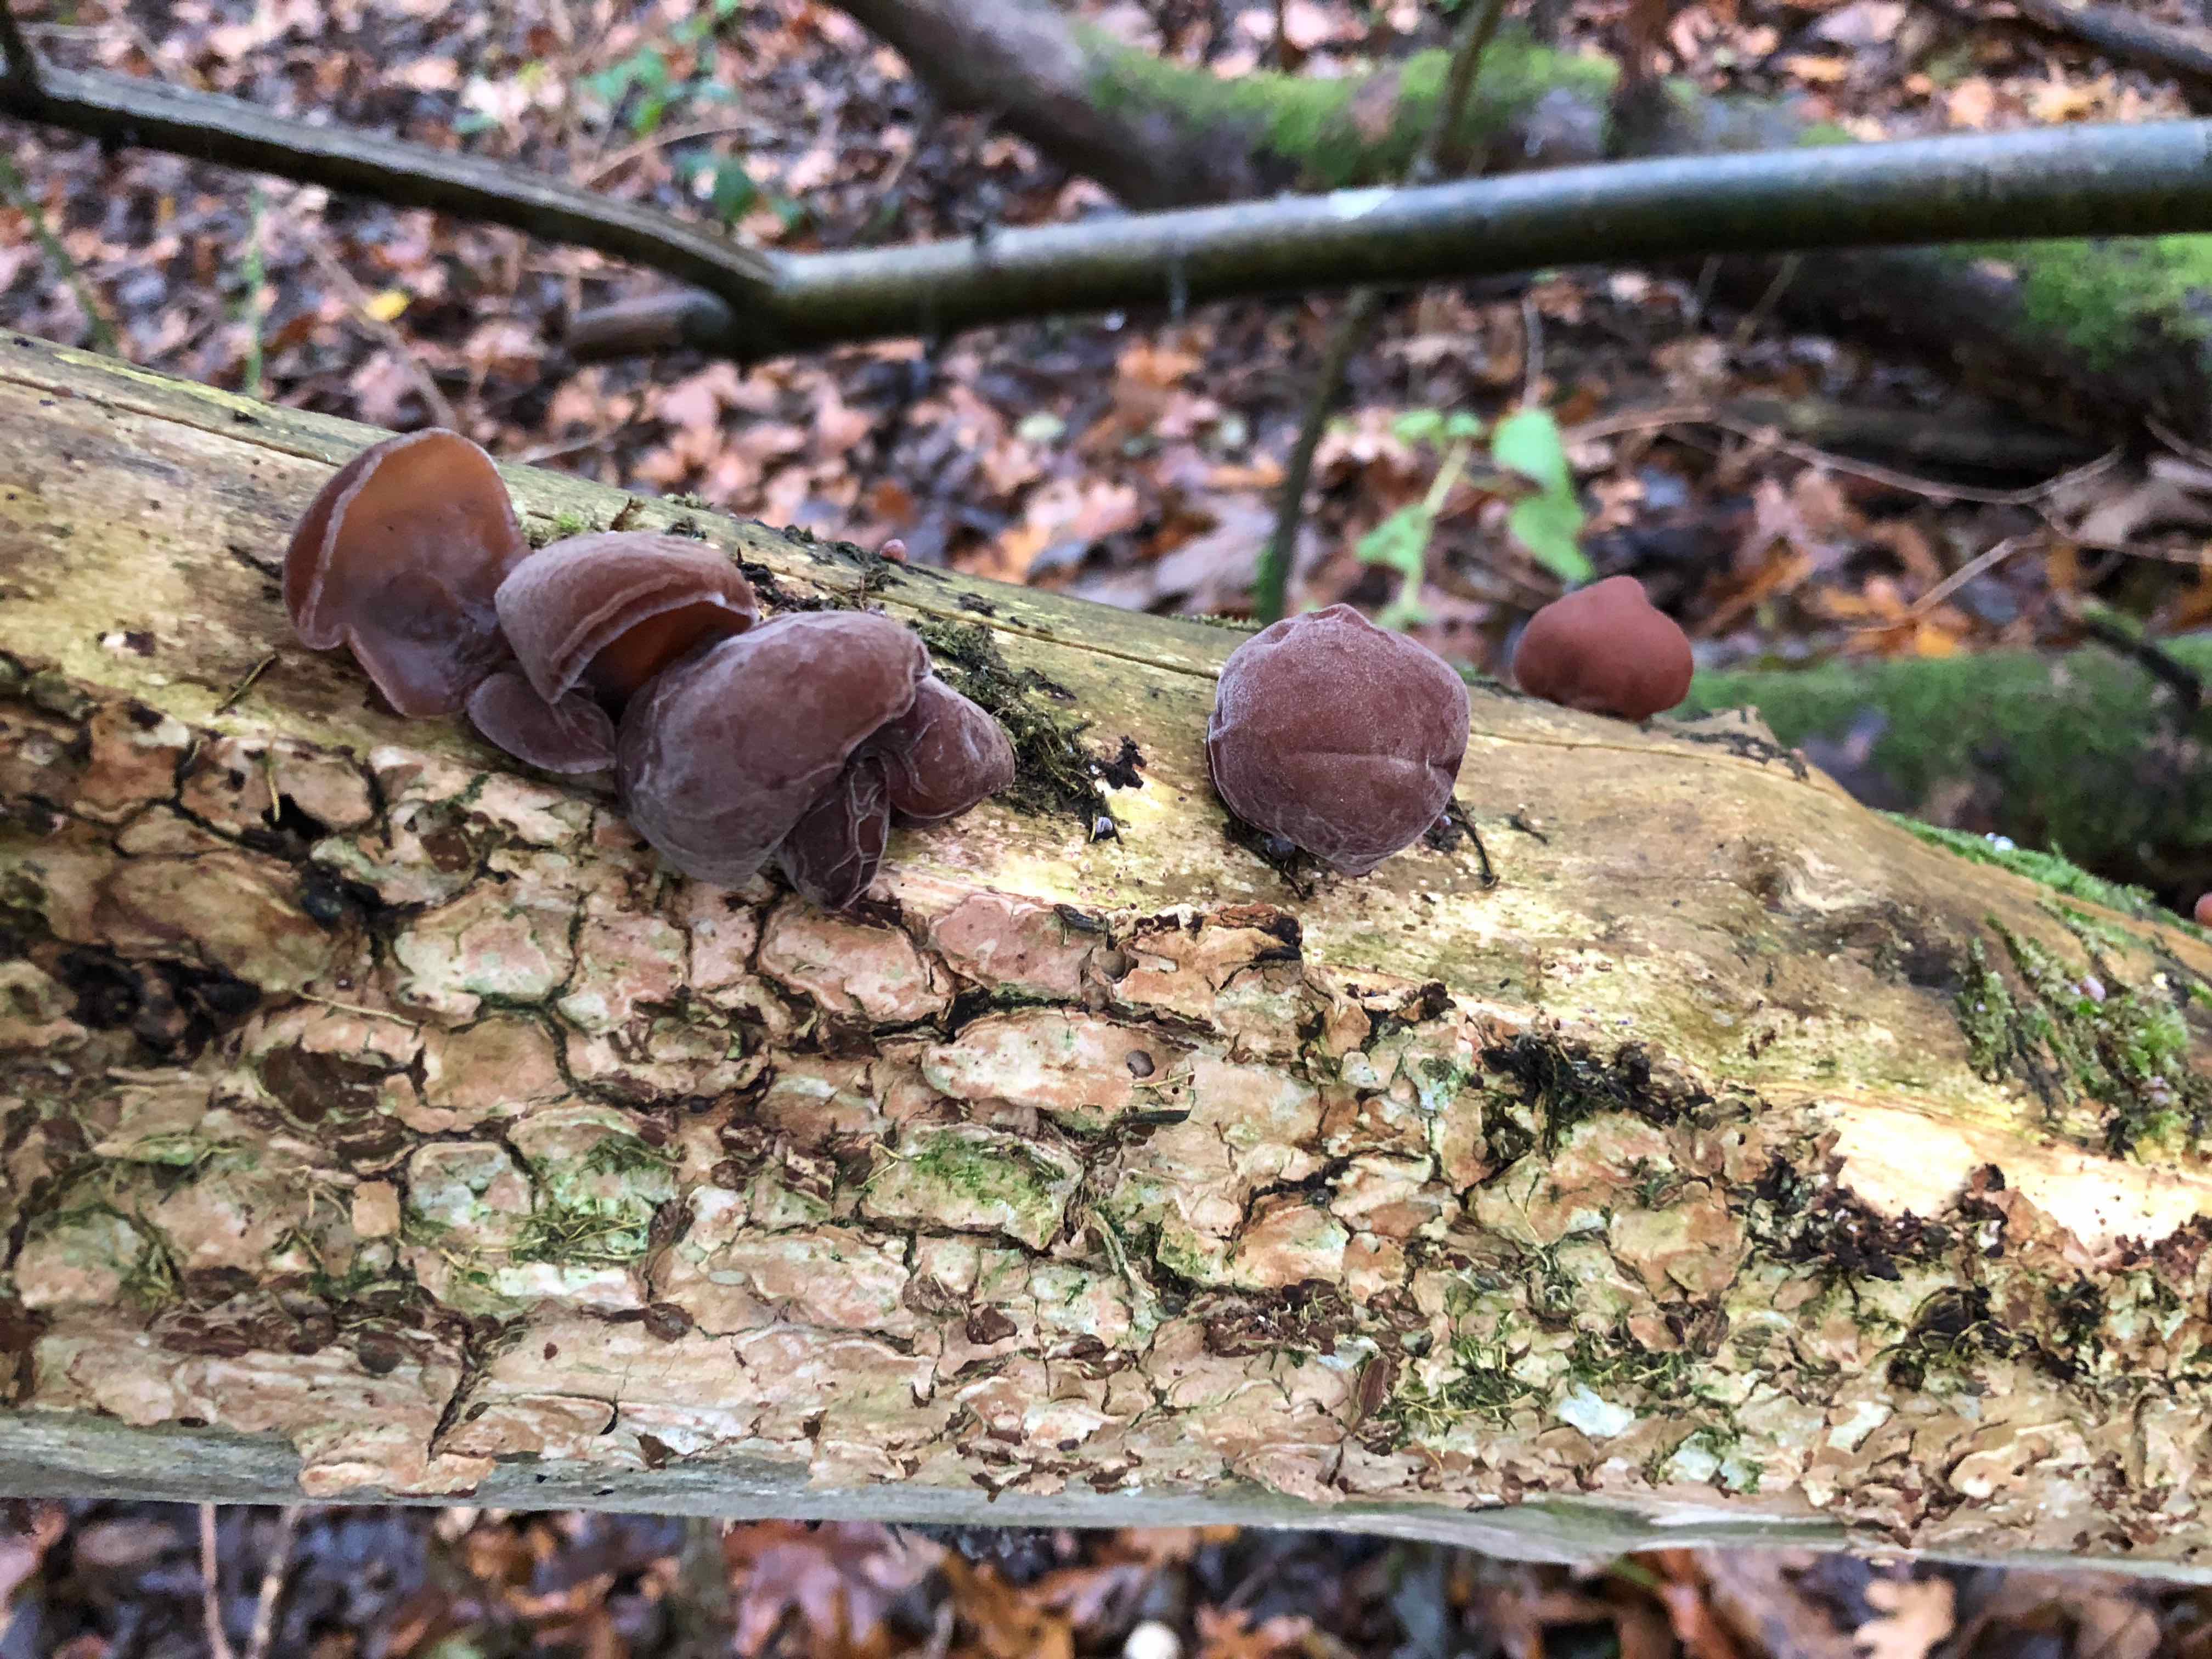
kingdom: Fungi
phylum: Basidiomycota
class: Agaricomycetes
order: Auriculariales
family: Auriculariaceae
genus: Auricularia
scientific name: Auricularia auricula-judae
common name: almindelig judasøre
